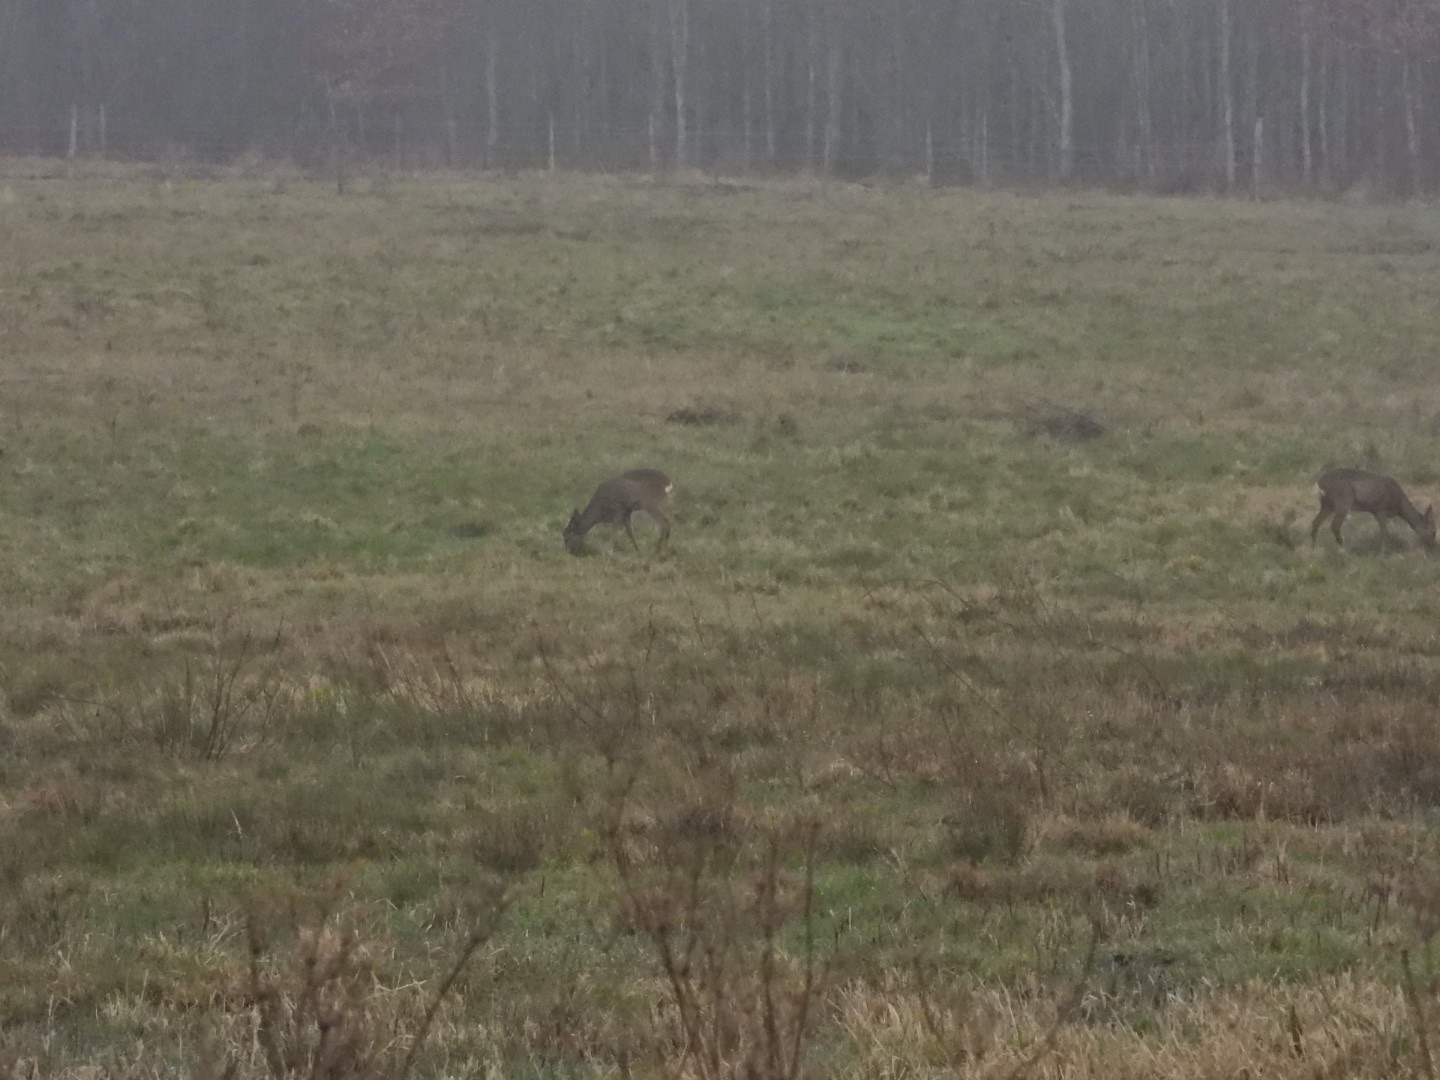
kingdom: Animalia
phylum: Chordata
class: Mammalia
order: Artiodactyla
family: Cervidae
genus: Capreolus
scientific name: Capreolus capreolus
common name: Rådyr
